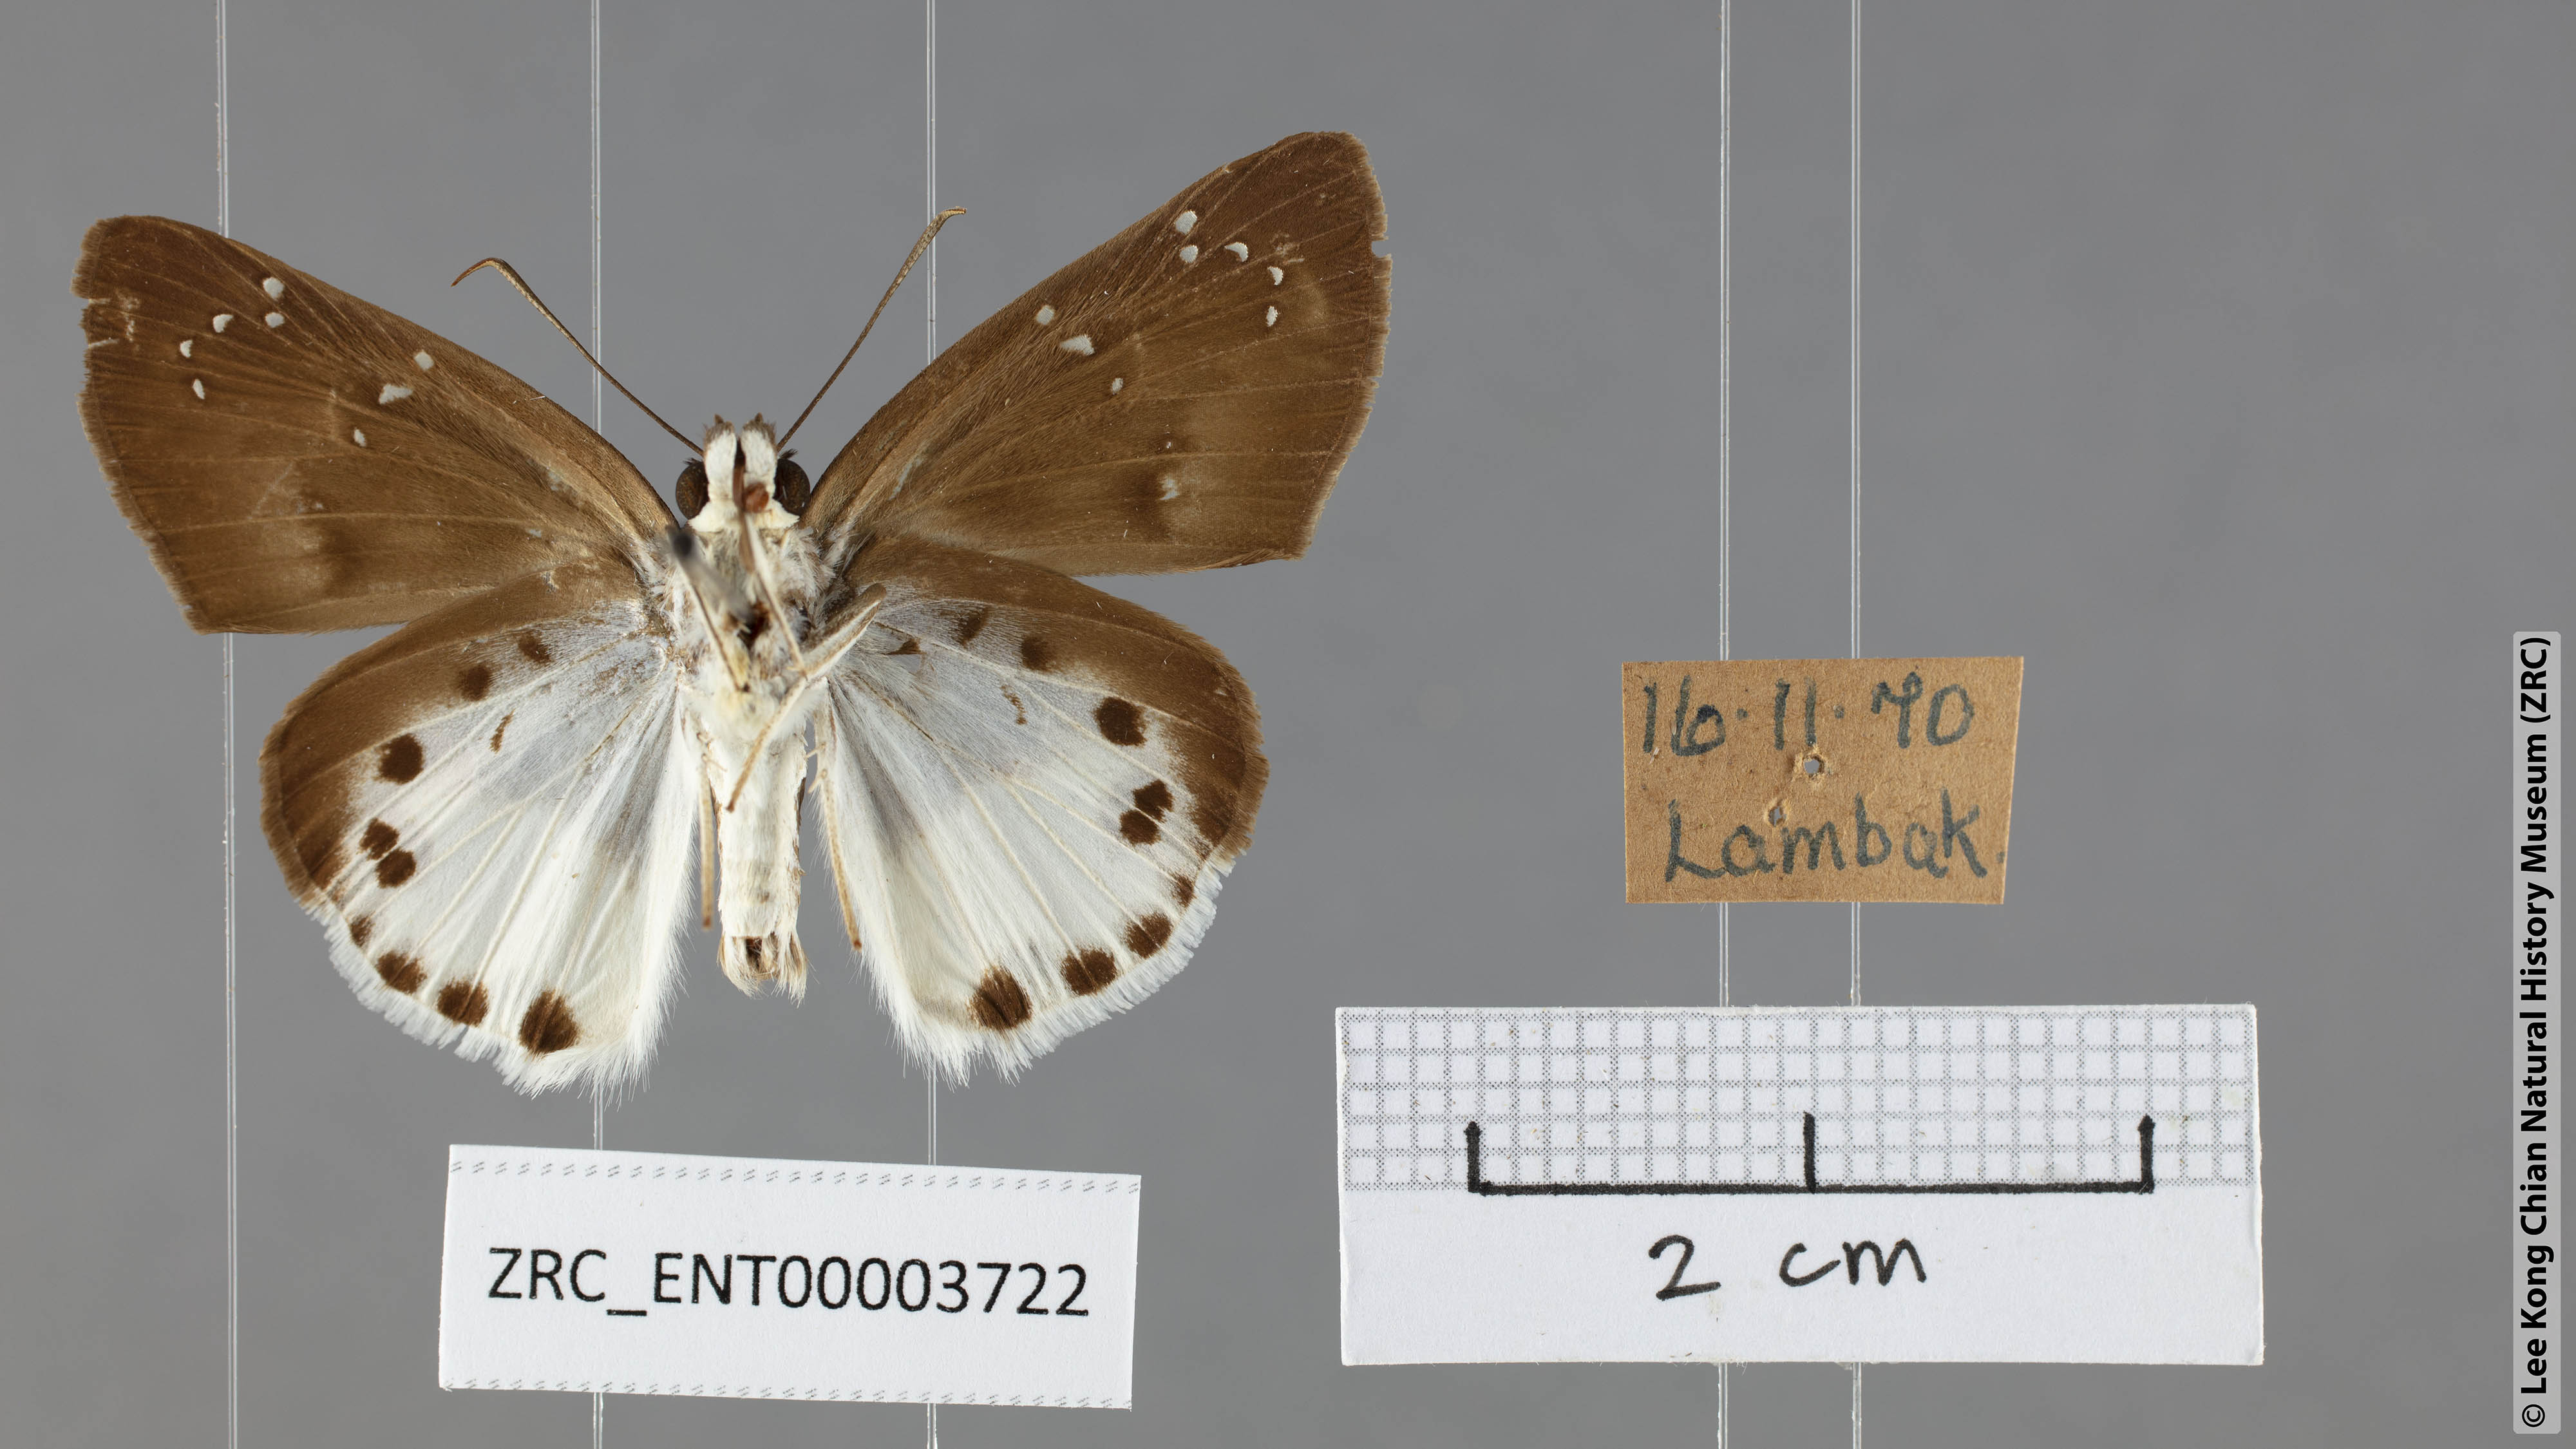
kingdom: Animalia
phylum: Arthropoda
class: Insecta
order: Lepidoptera
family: Hesperiidae
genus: Tagiades
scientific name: Tagiades litigiosa
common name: Water snow flat
